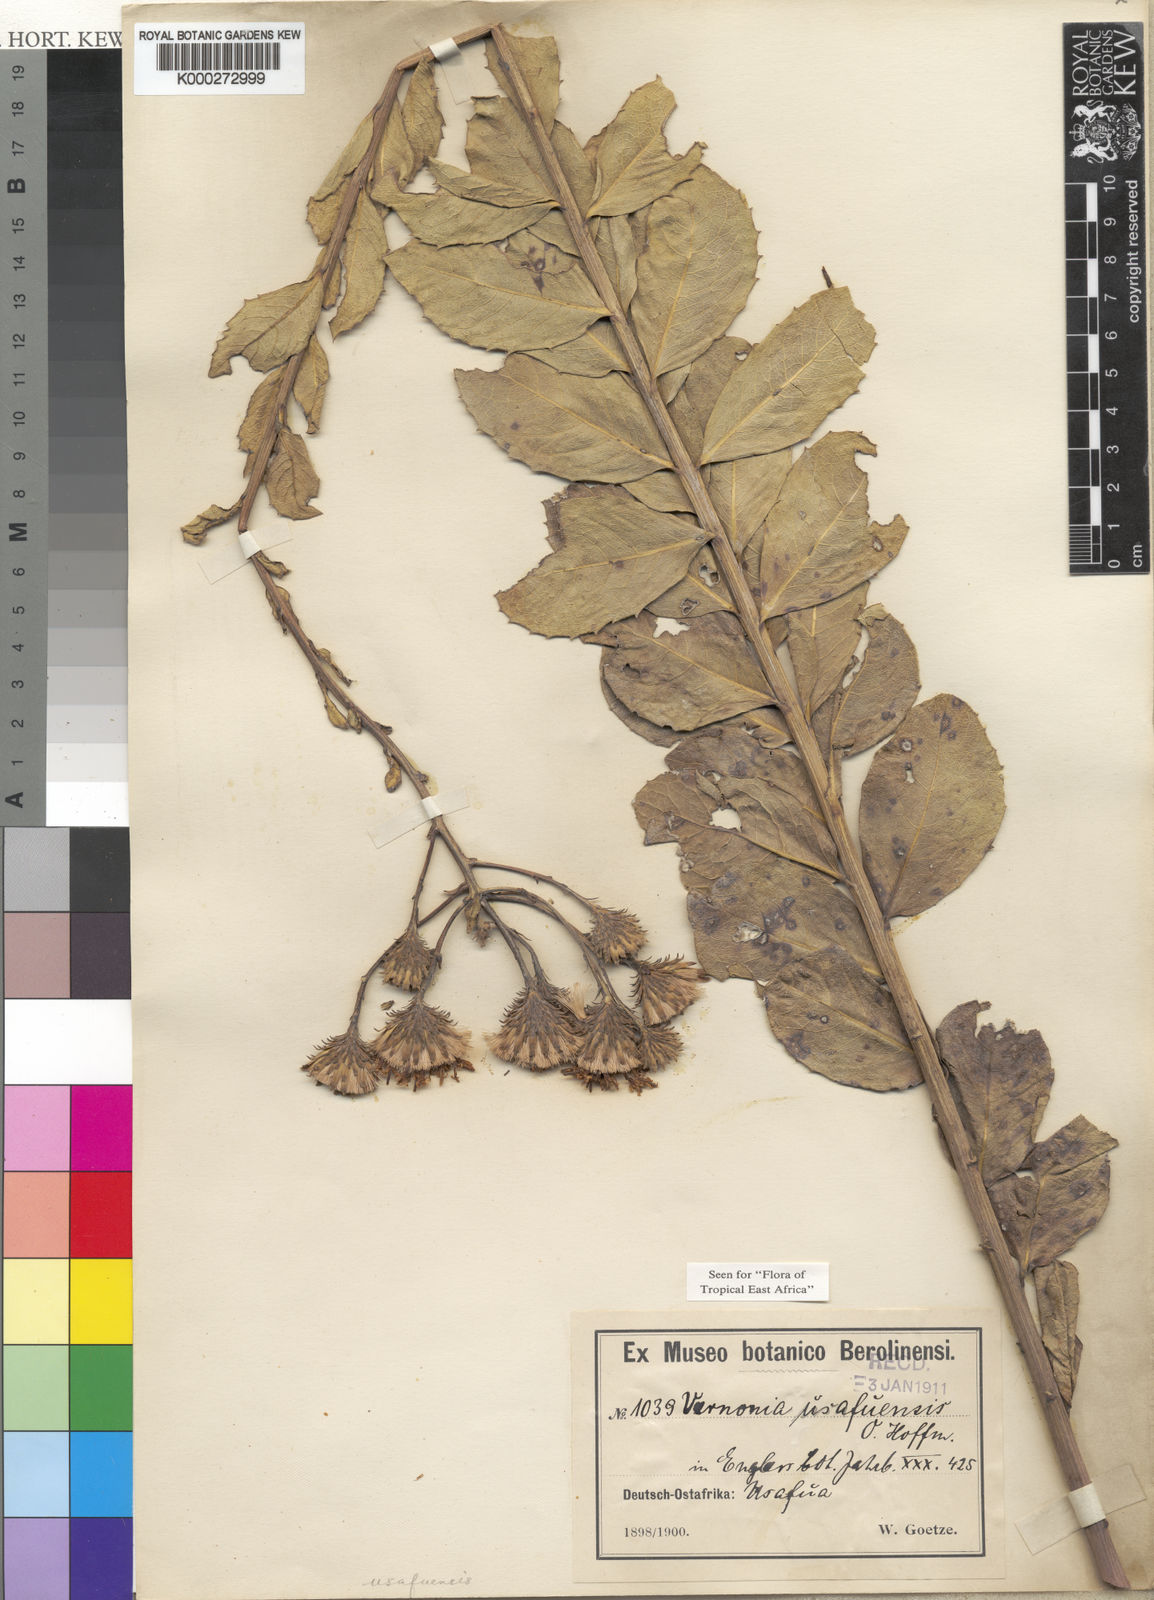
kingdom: Plantae
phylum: Tracheophyta
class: Magnoliopsida
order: Asterales
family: Asteraceae
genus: Linzia
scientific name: Linzia usafuensis
